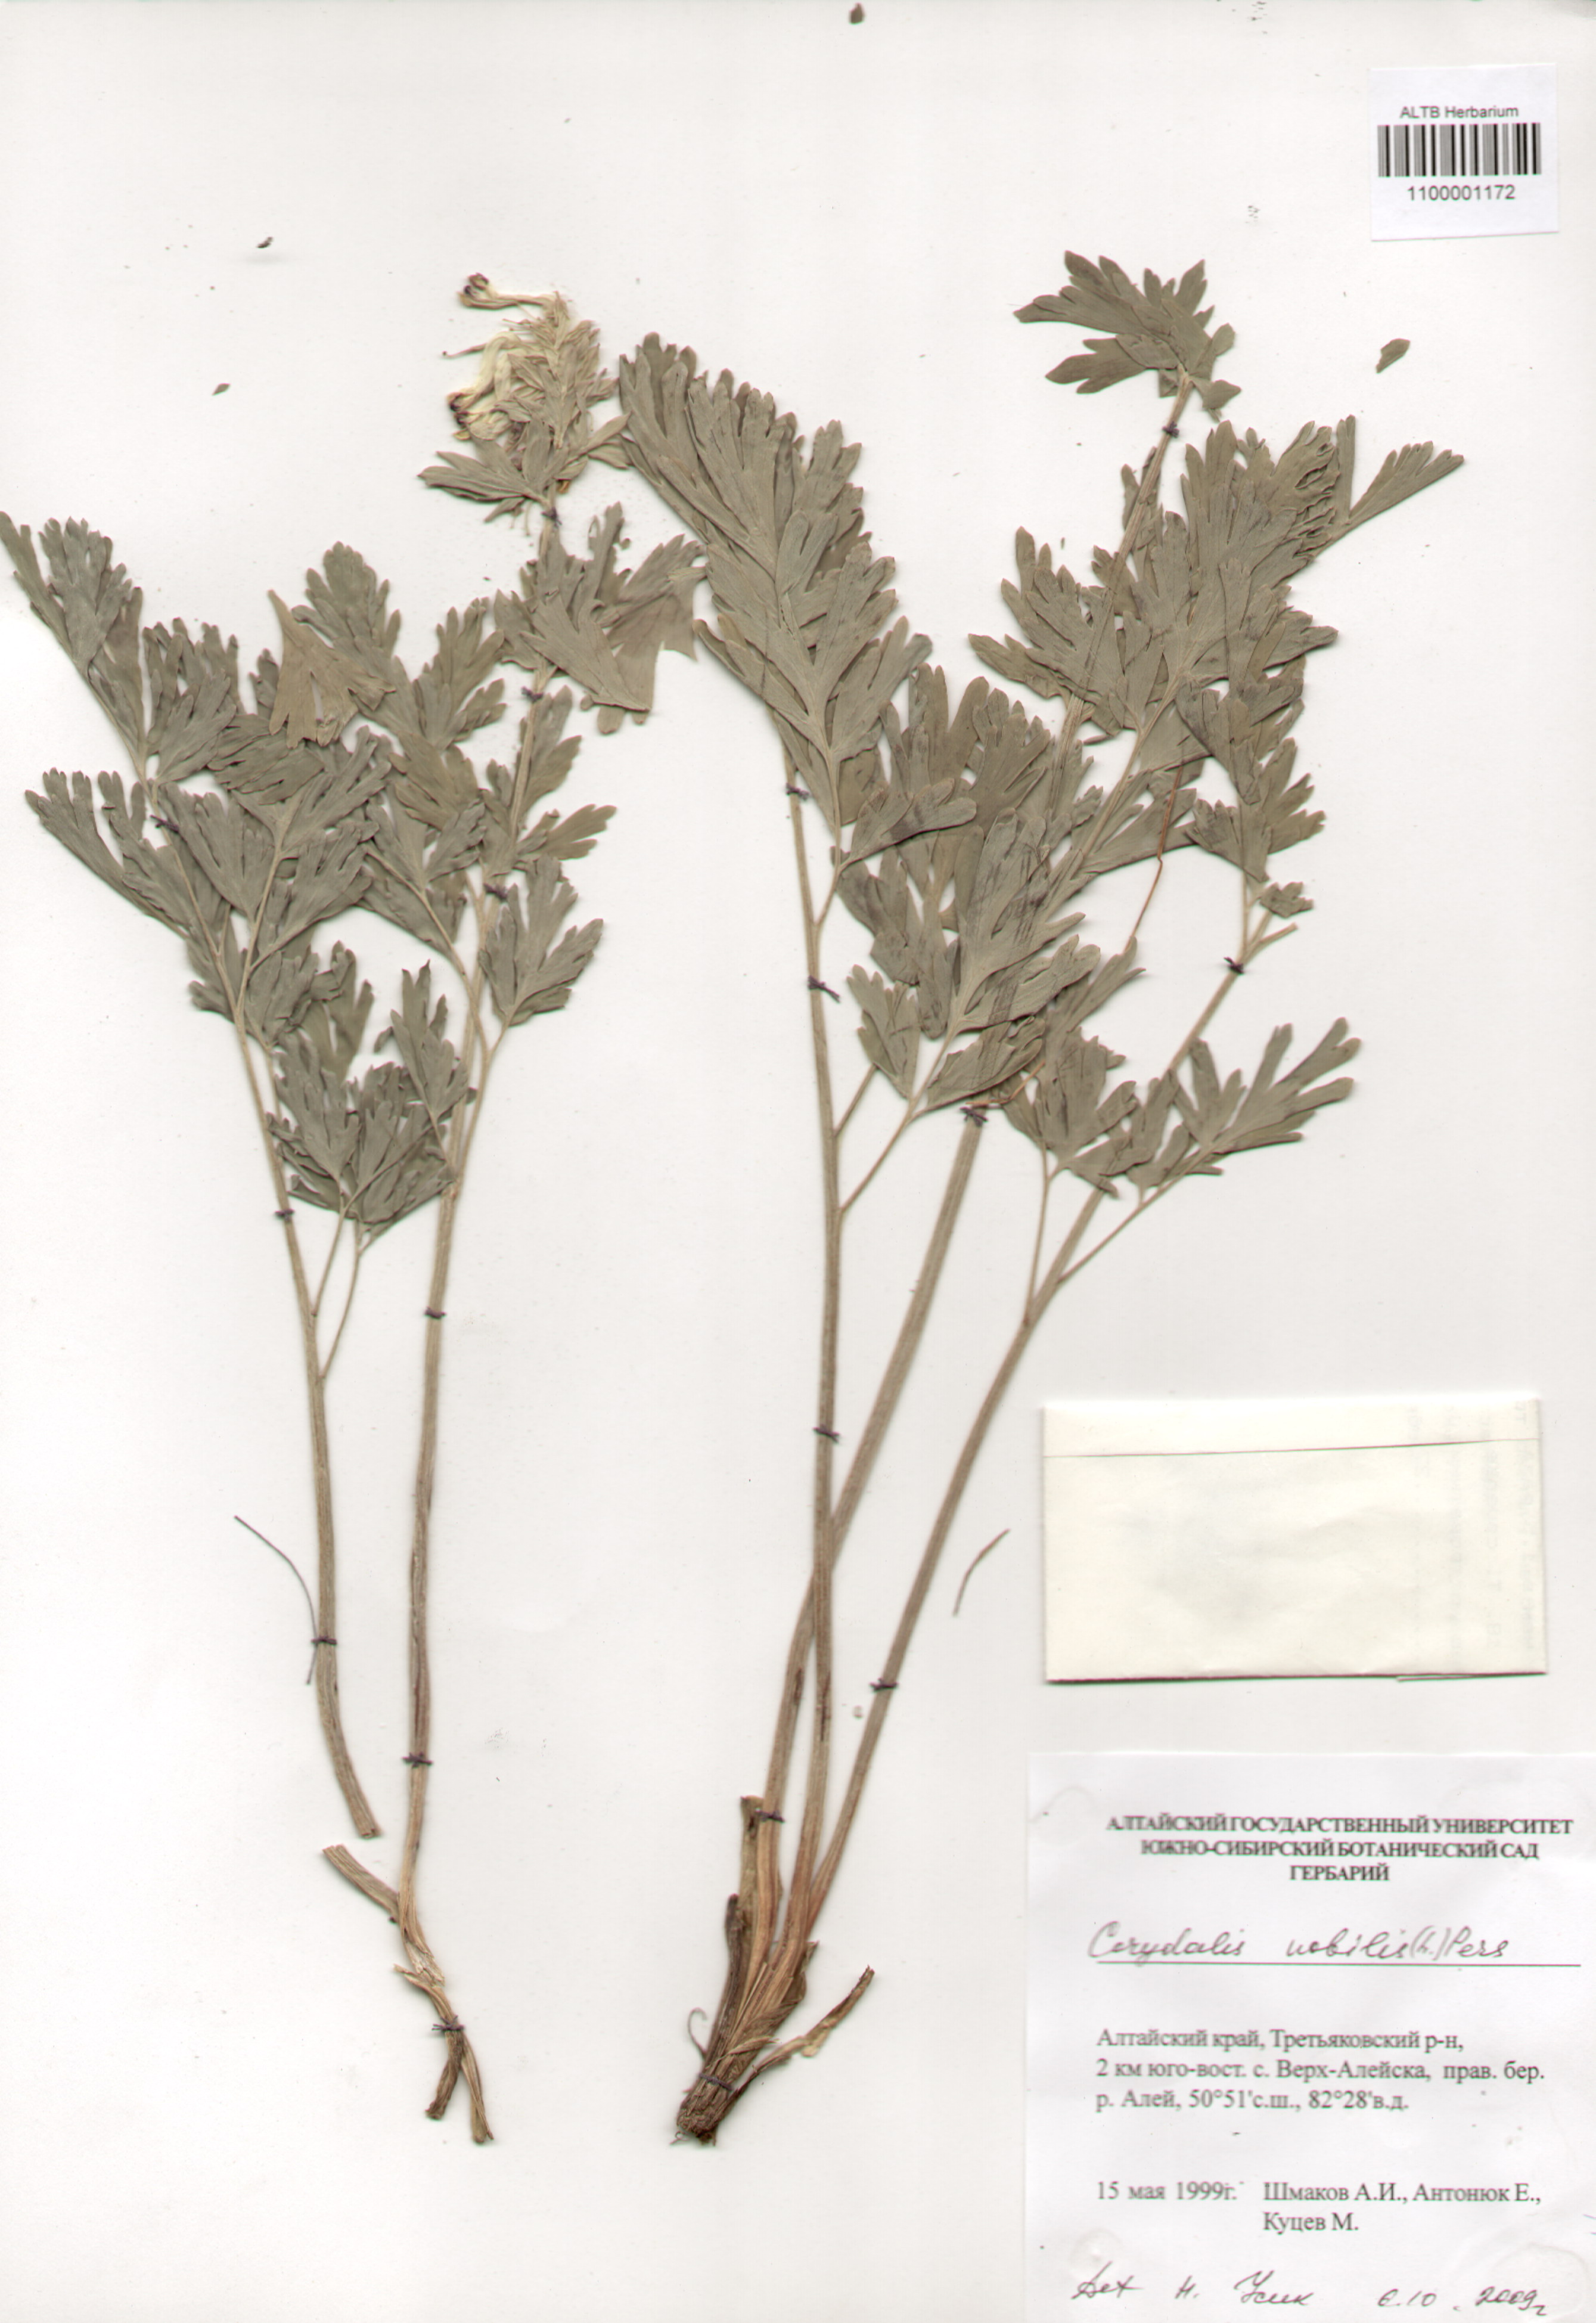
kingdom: Plantae
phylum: Tracheophyta
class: Magnoliopsida
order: Ranunculales
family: Papaveraceae
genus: Corydalis
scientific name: Corydalis nobilis
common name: Siberian corydalis
